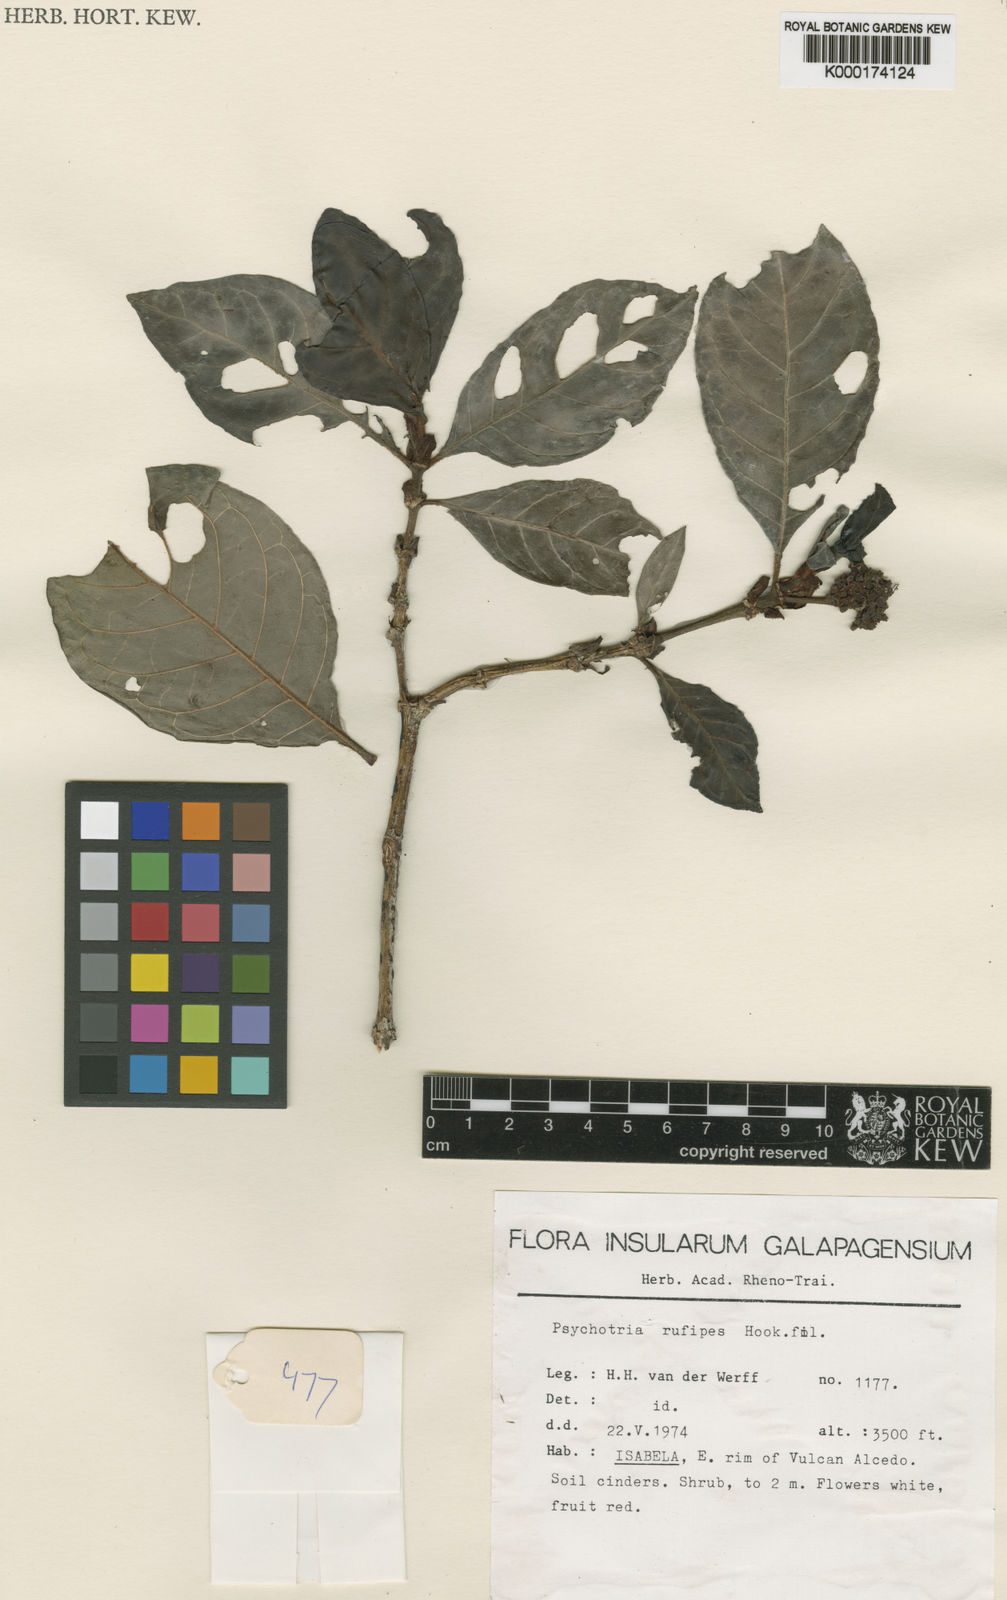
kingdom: Plantae
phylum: Tracheophyta
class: Magnoliopsida
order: Gentianales
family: Rubiaceae
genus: Psychotria
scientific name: Psychotria rufipes
